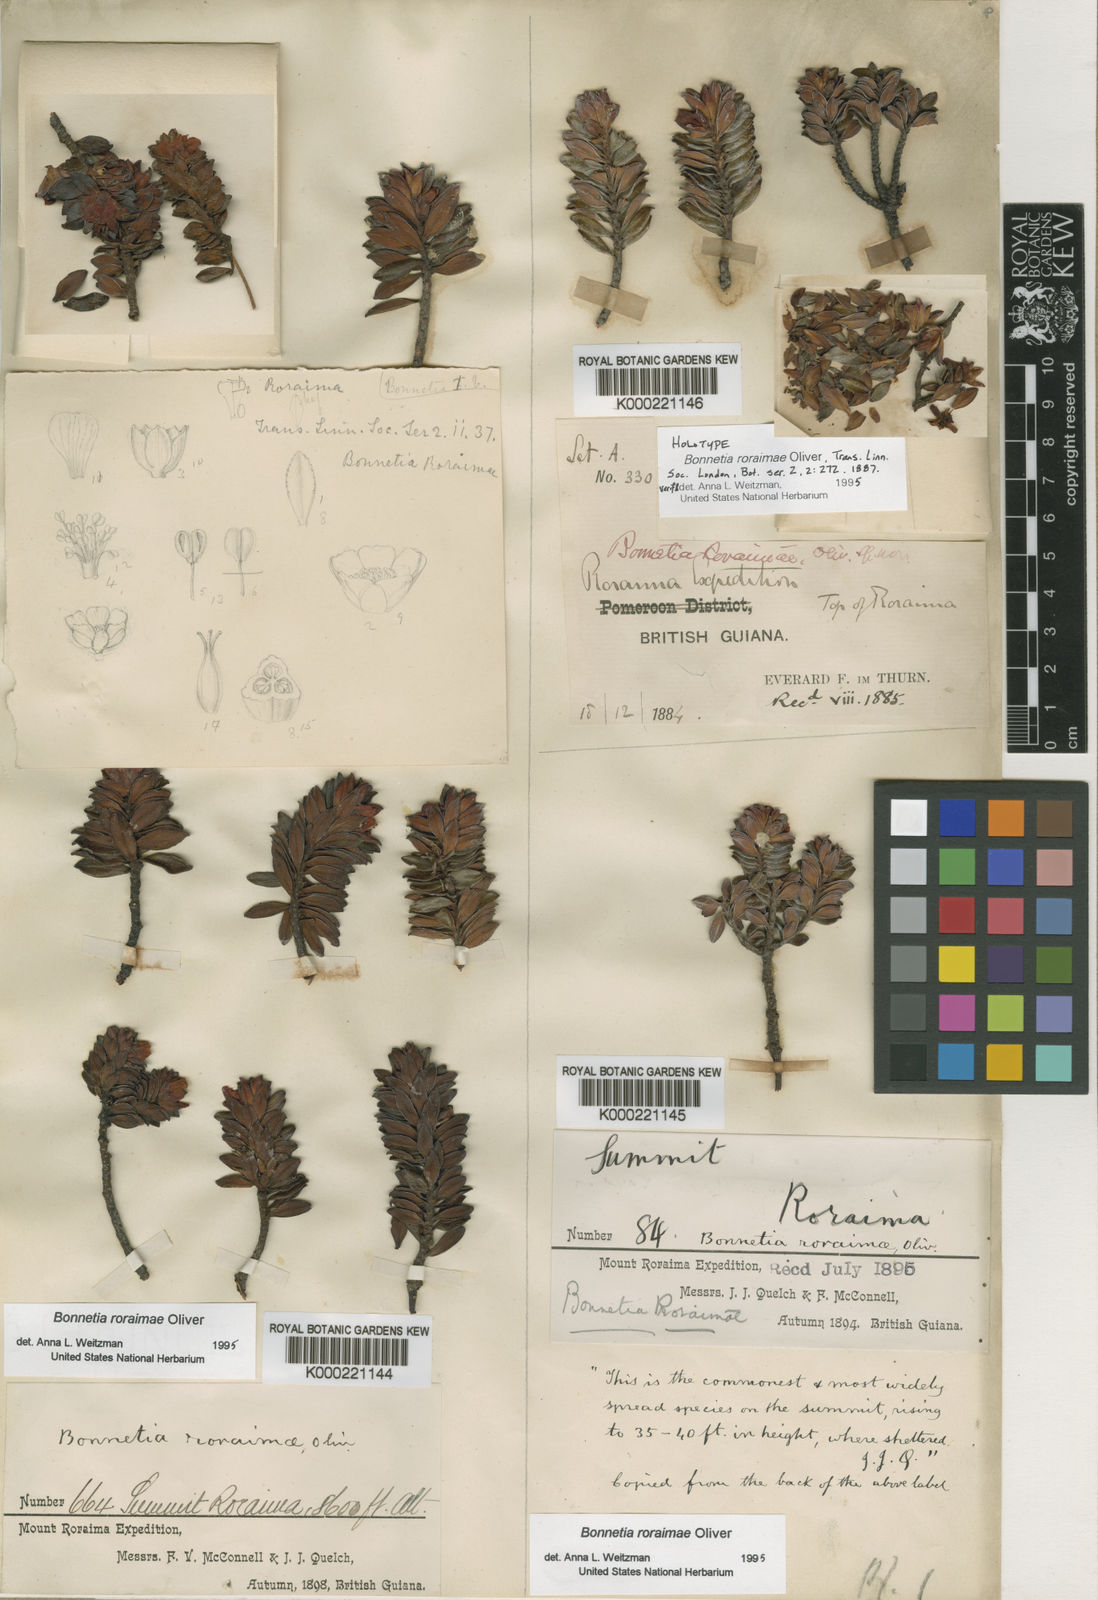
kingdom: Plantae
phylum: Tracheophyta
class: Magnoliopsida
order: Malpighiales
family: Bonnetiaceae
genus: Bonnetia
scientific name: Bonnetia roraimae
